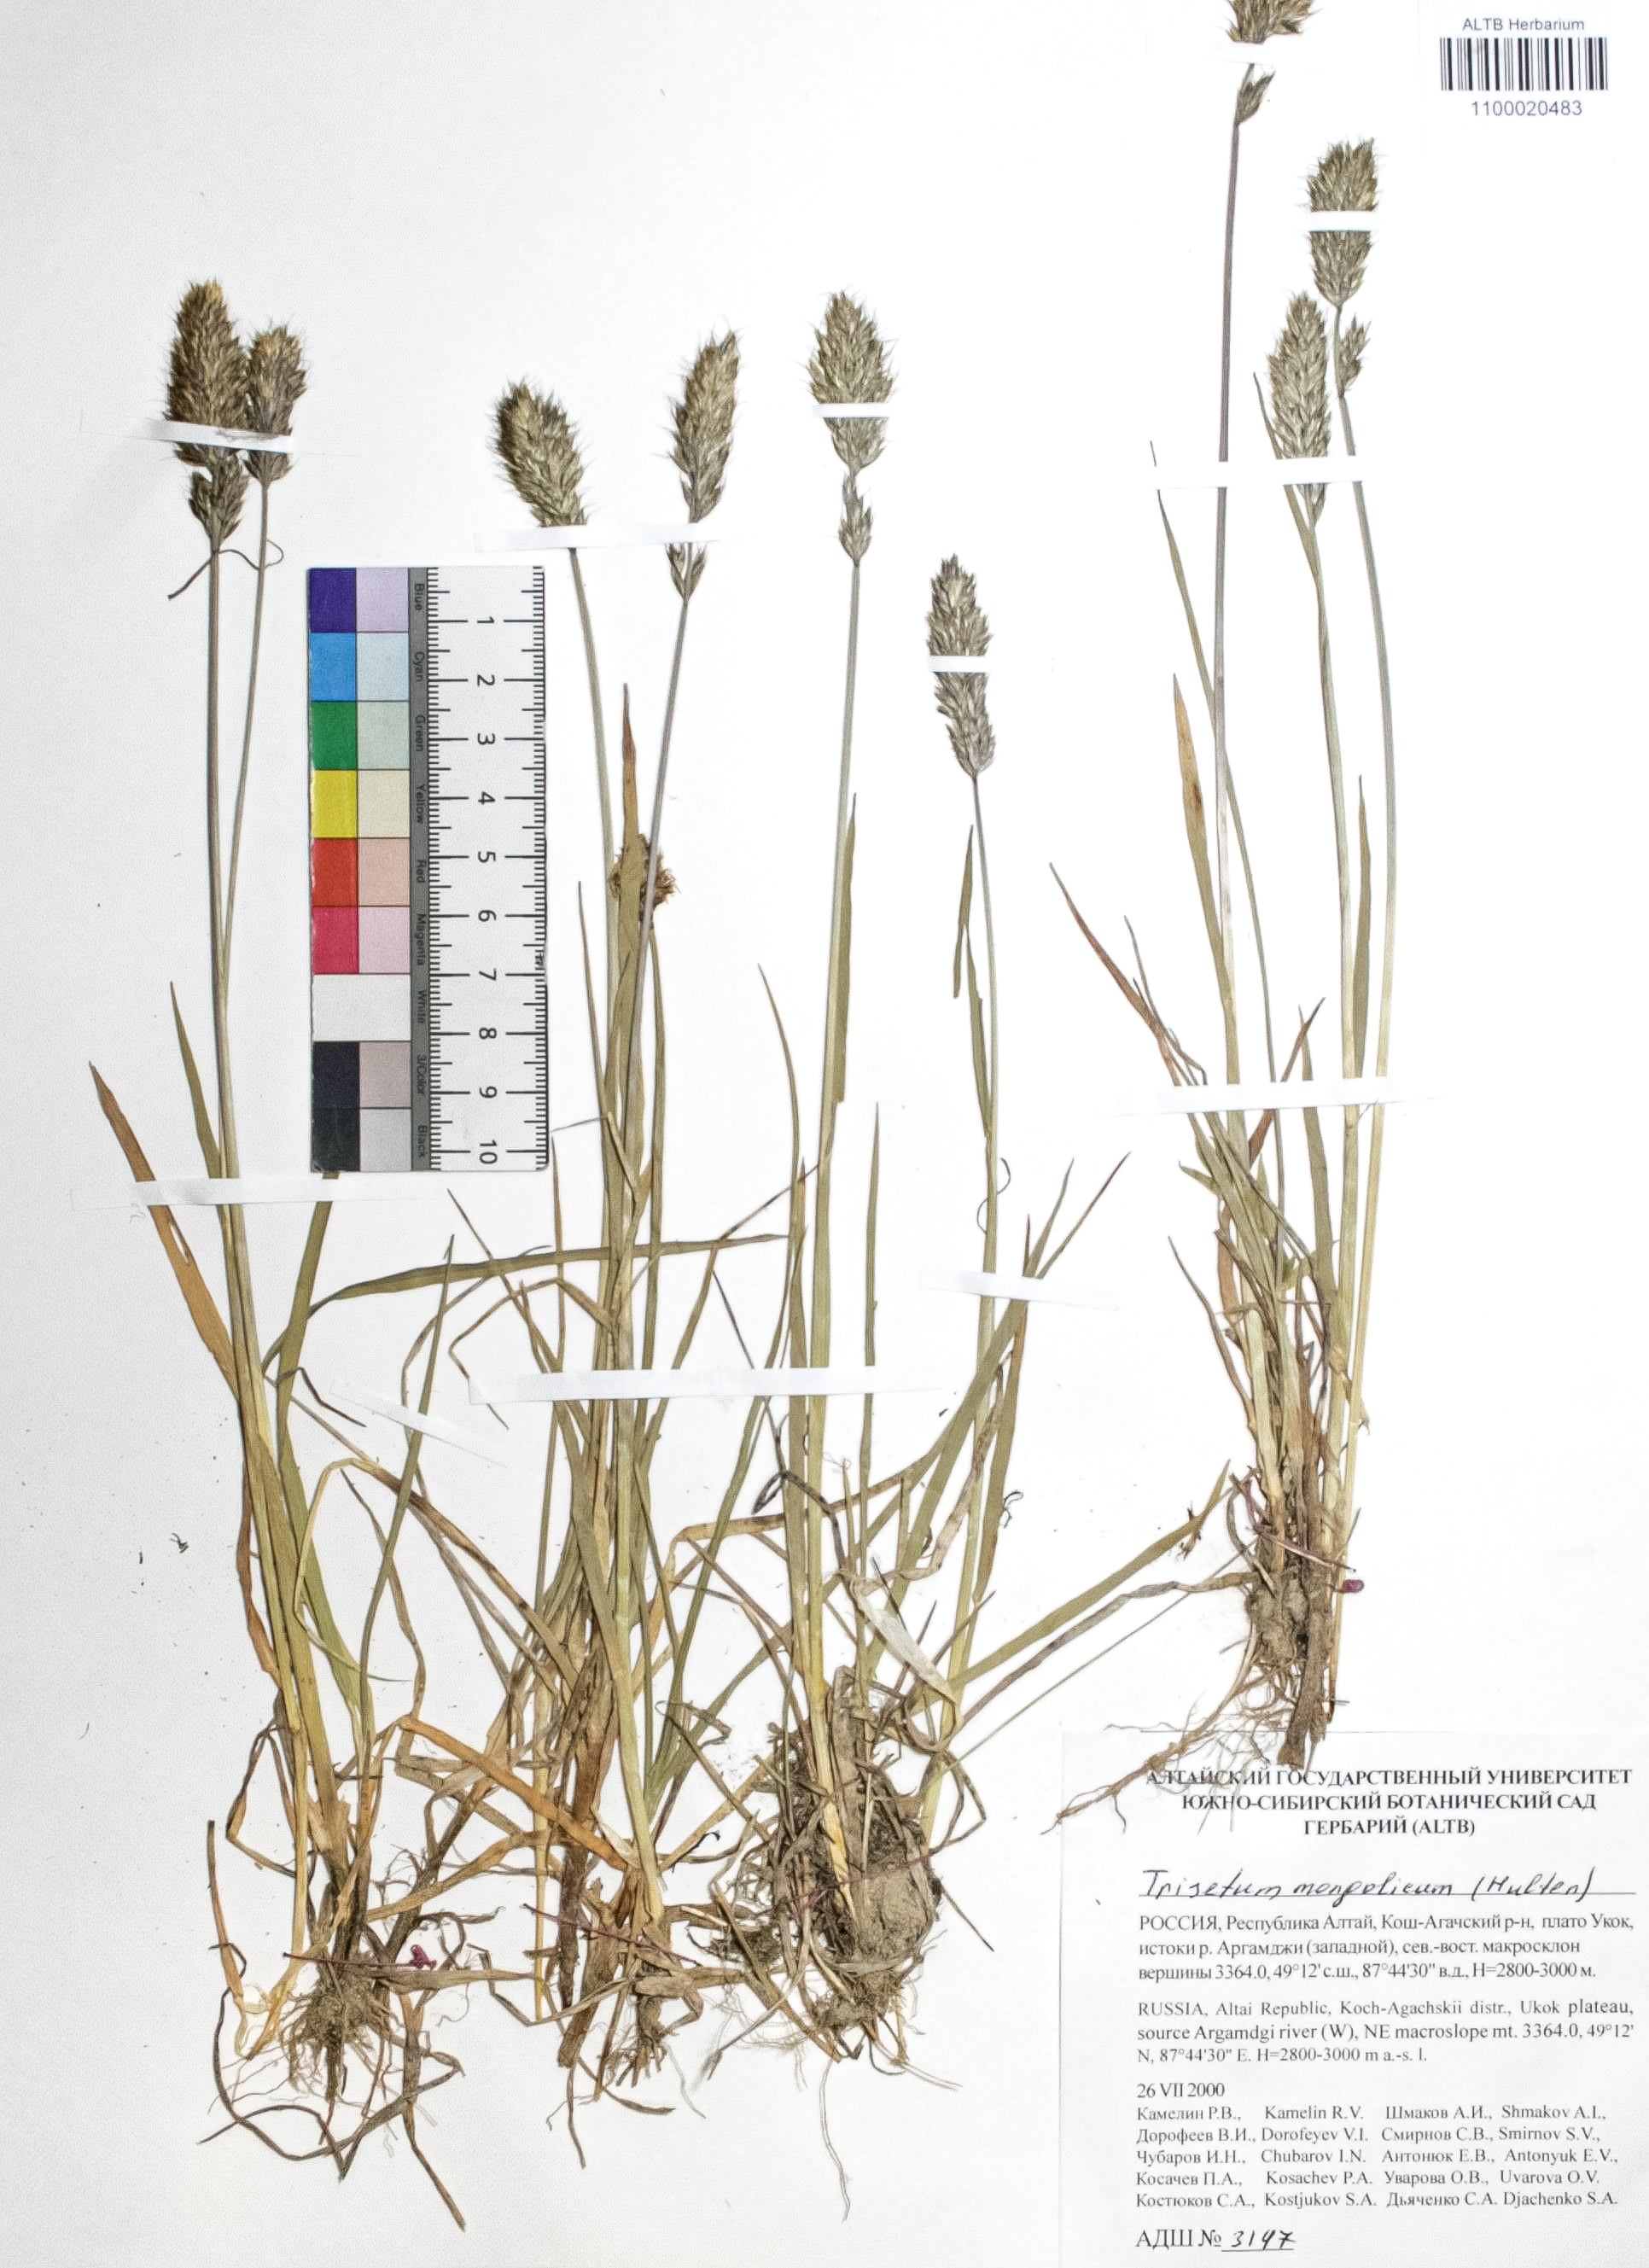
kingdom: Plantae
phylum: Tracheophyta
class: Liliopsida
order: Poales
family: Poaceae
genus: Koeleria
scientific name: Koeleria spicata
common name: Mountain trisetum
